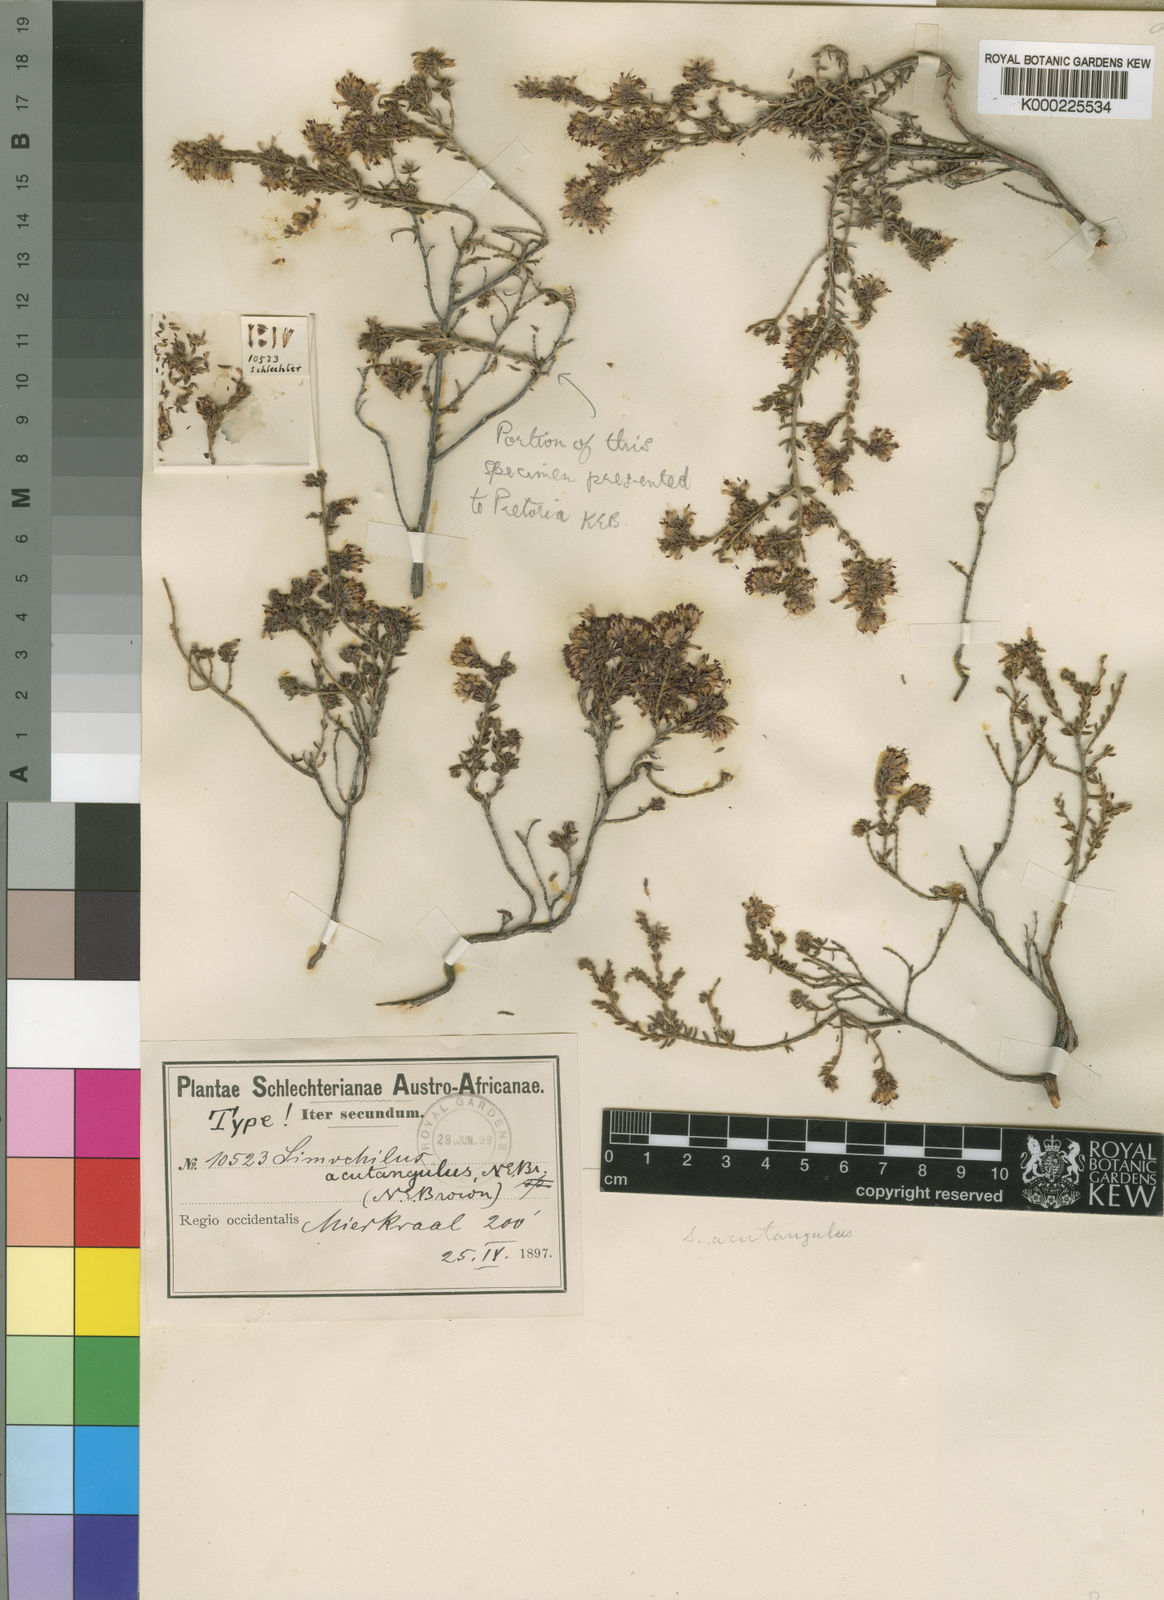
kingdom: Plantae
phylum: Tracheophyta
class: Magnoliopsida
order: Ericales
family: Ericaceae
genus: Erica
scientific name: Erica glabella
